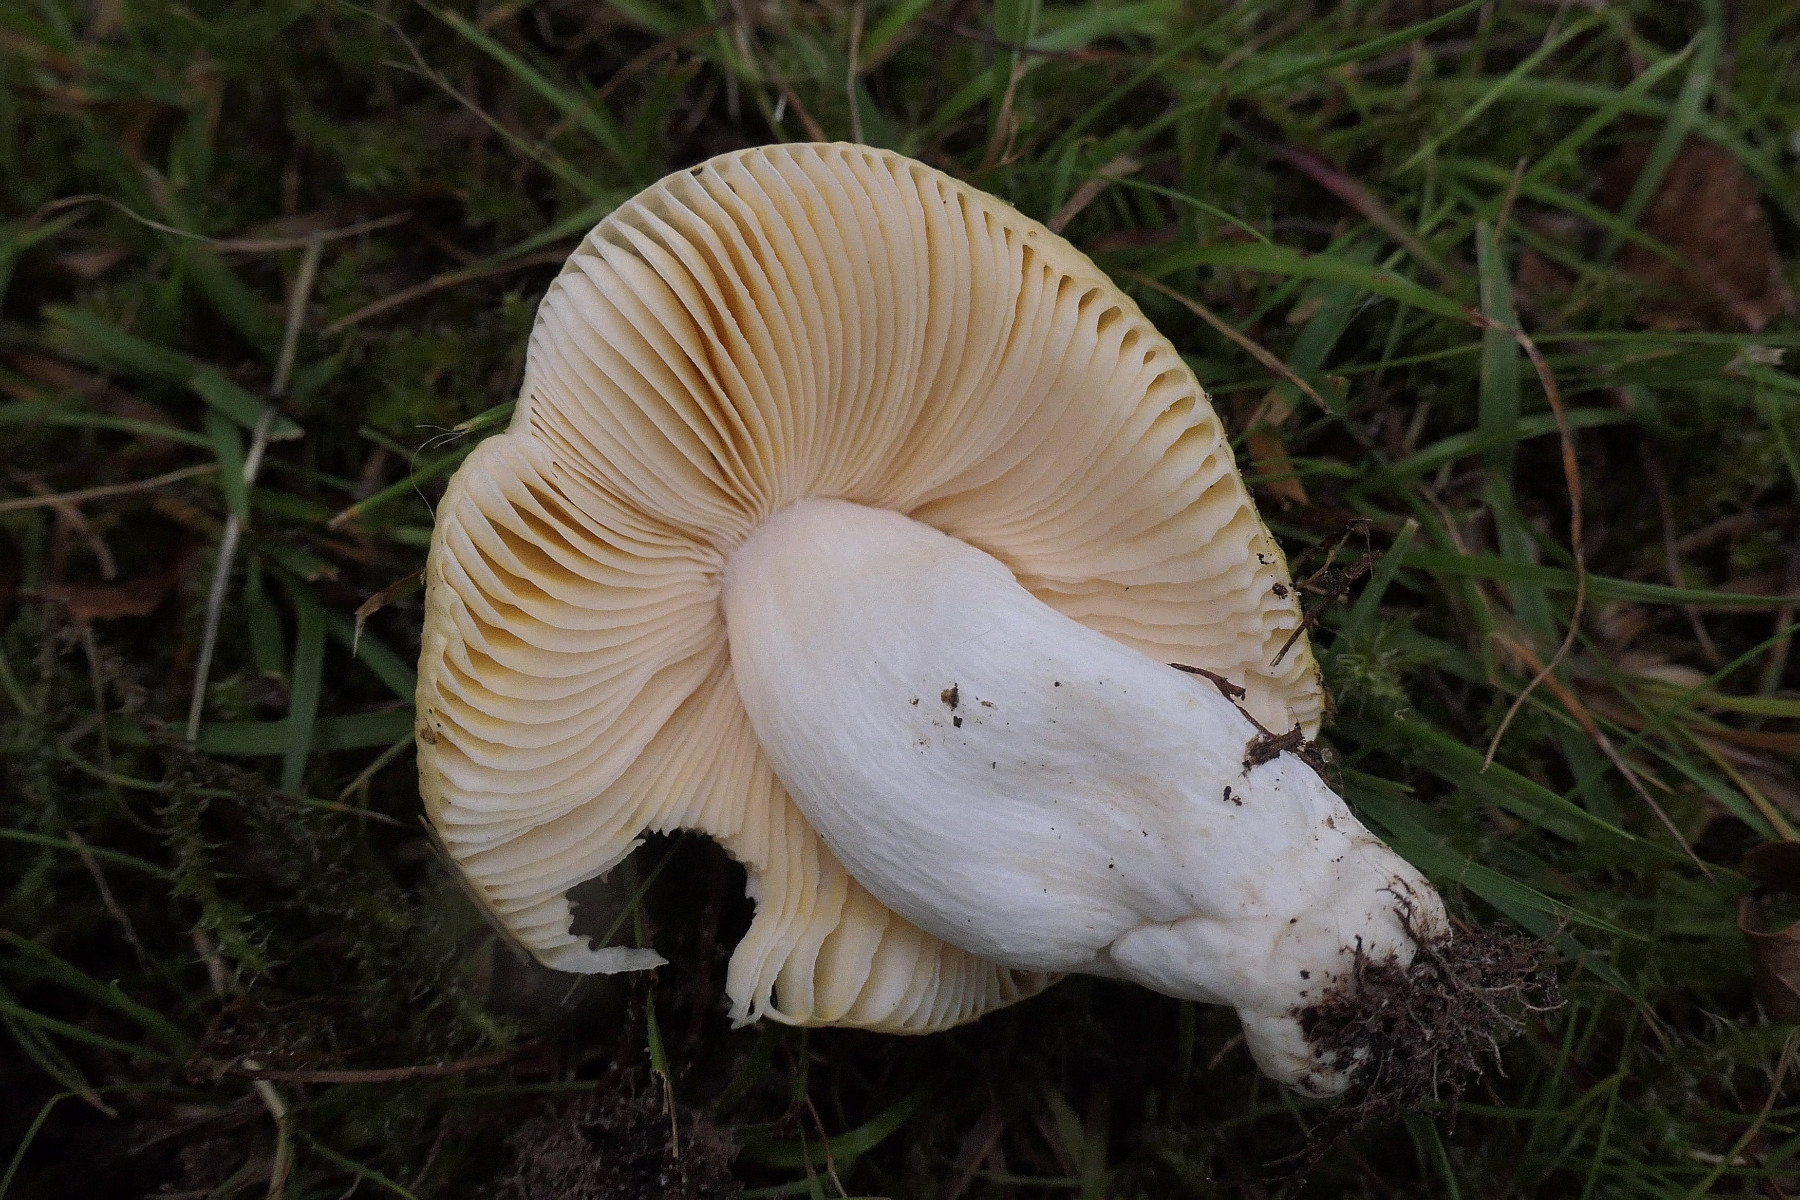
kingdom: Fungi
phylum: Basidiomycota
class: Agaricomycetes
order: Russulales
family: Russulaceae
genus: Russula
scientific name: Russula risigallina
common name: abrikos-skørhat
